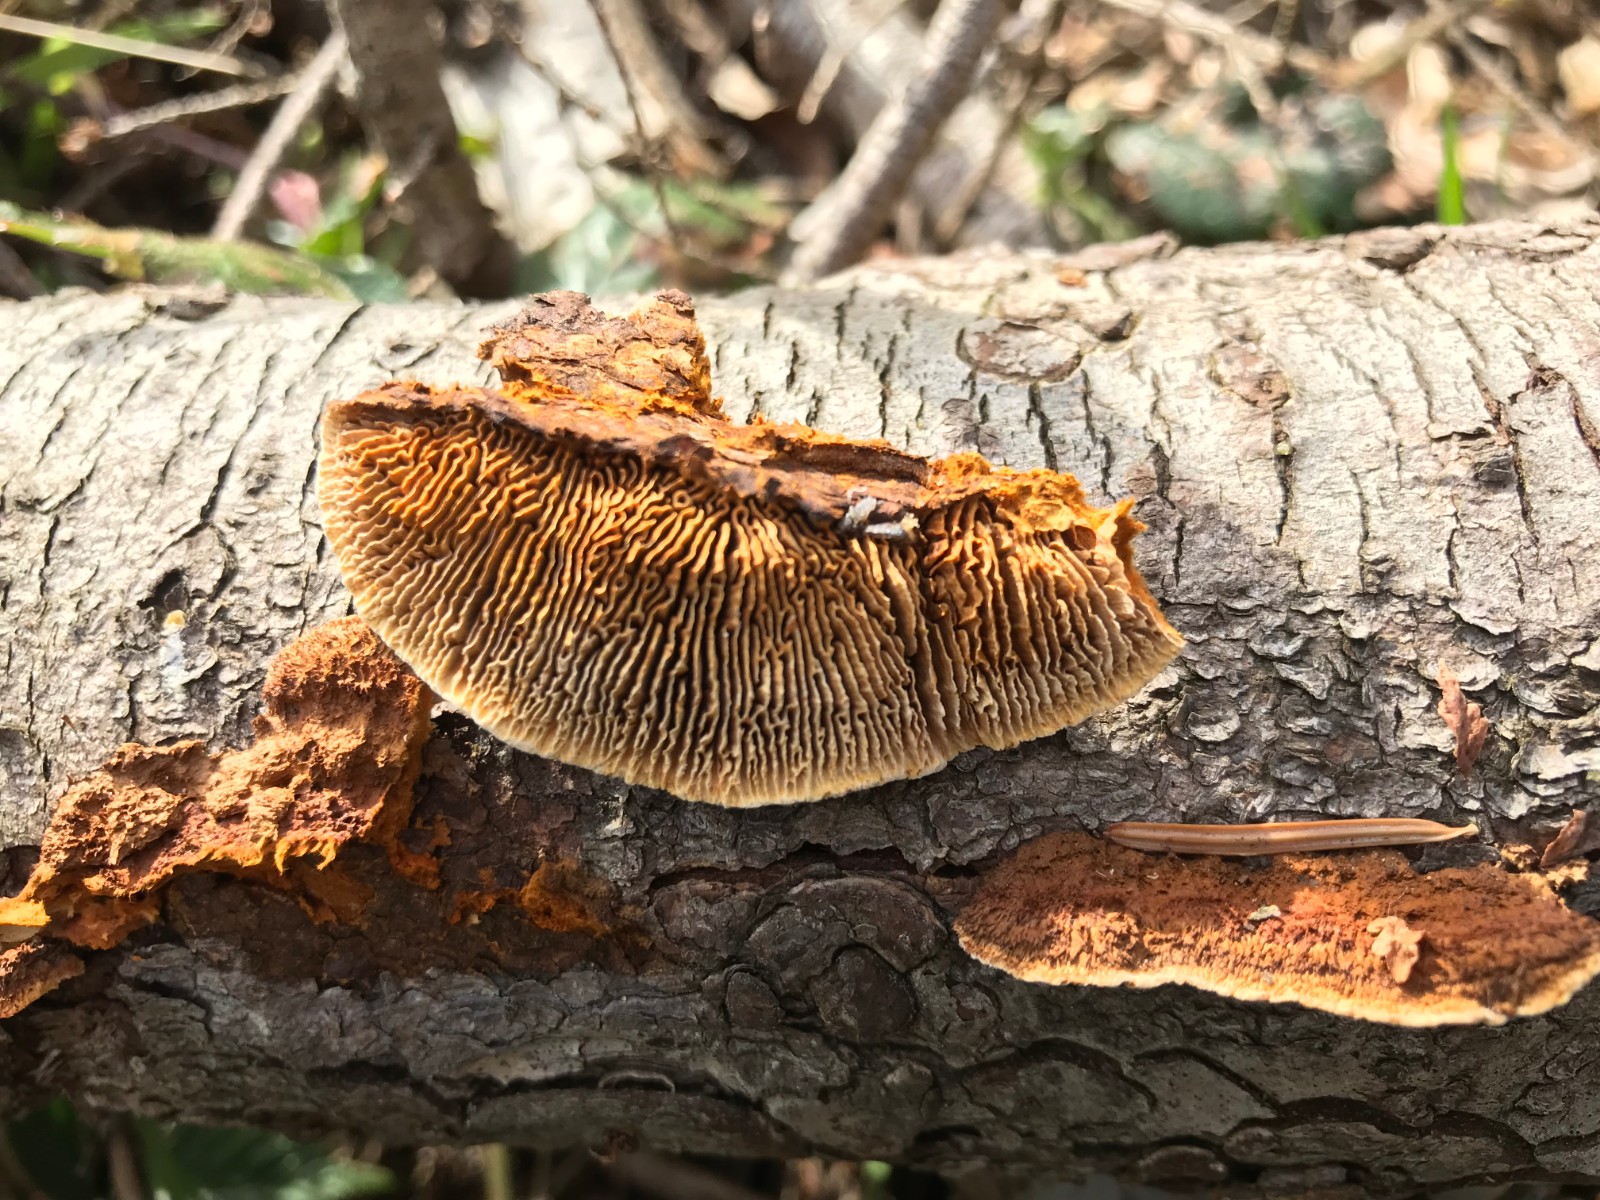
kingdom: Fungi
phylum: Basidiomycota
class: Agaricomycetes
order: Gloeophyllales
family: Gloeophyllaceae
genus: Gloeophyllum
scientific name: Gloeophyllum sepiarium
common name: fyrre-korkhat
